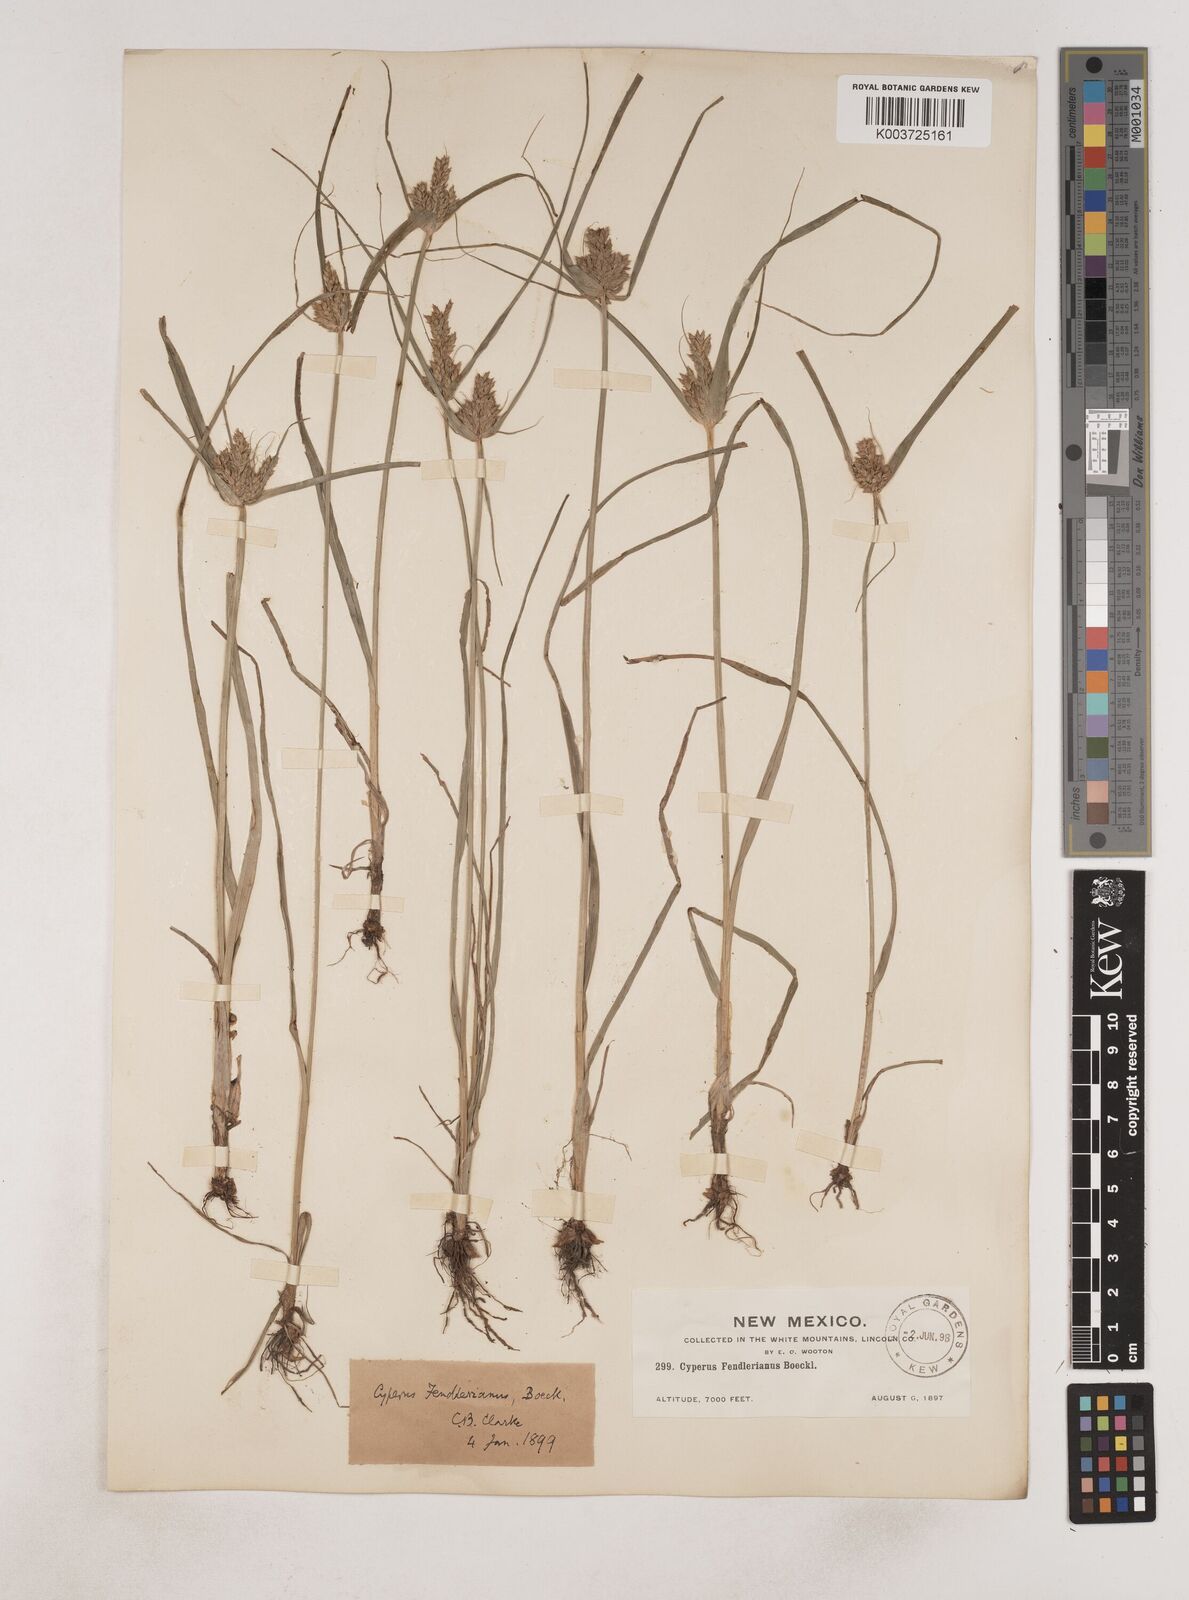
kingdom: Plantae
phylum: Tracheophyta
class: Liliopsida
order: Poales
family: Cyperaceae
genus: Cyperus
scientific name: Cyperus fendlerianus
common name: Fendler flat sedge
